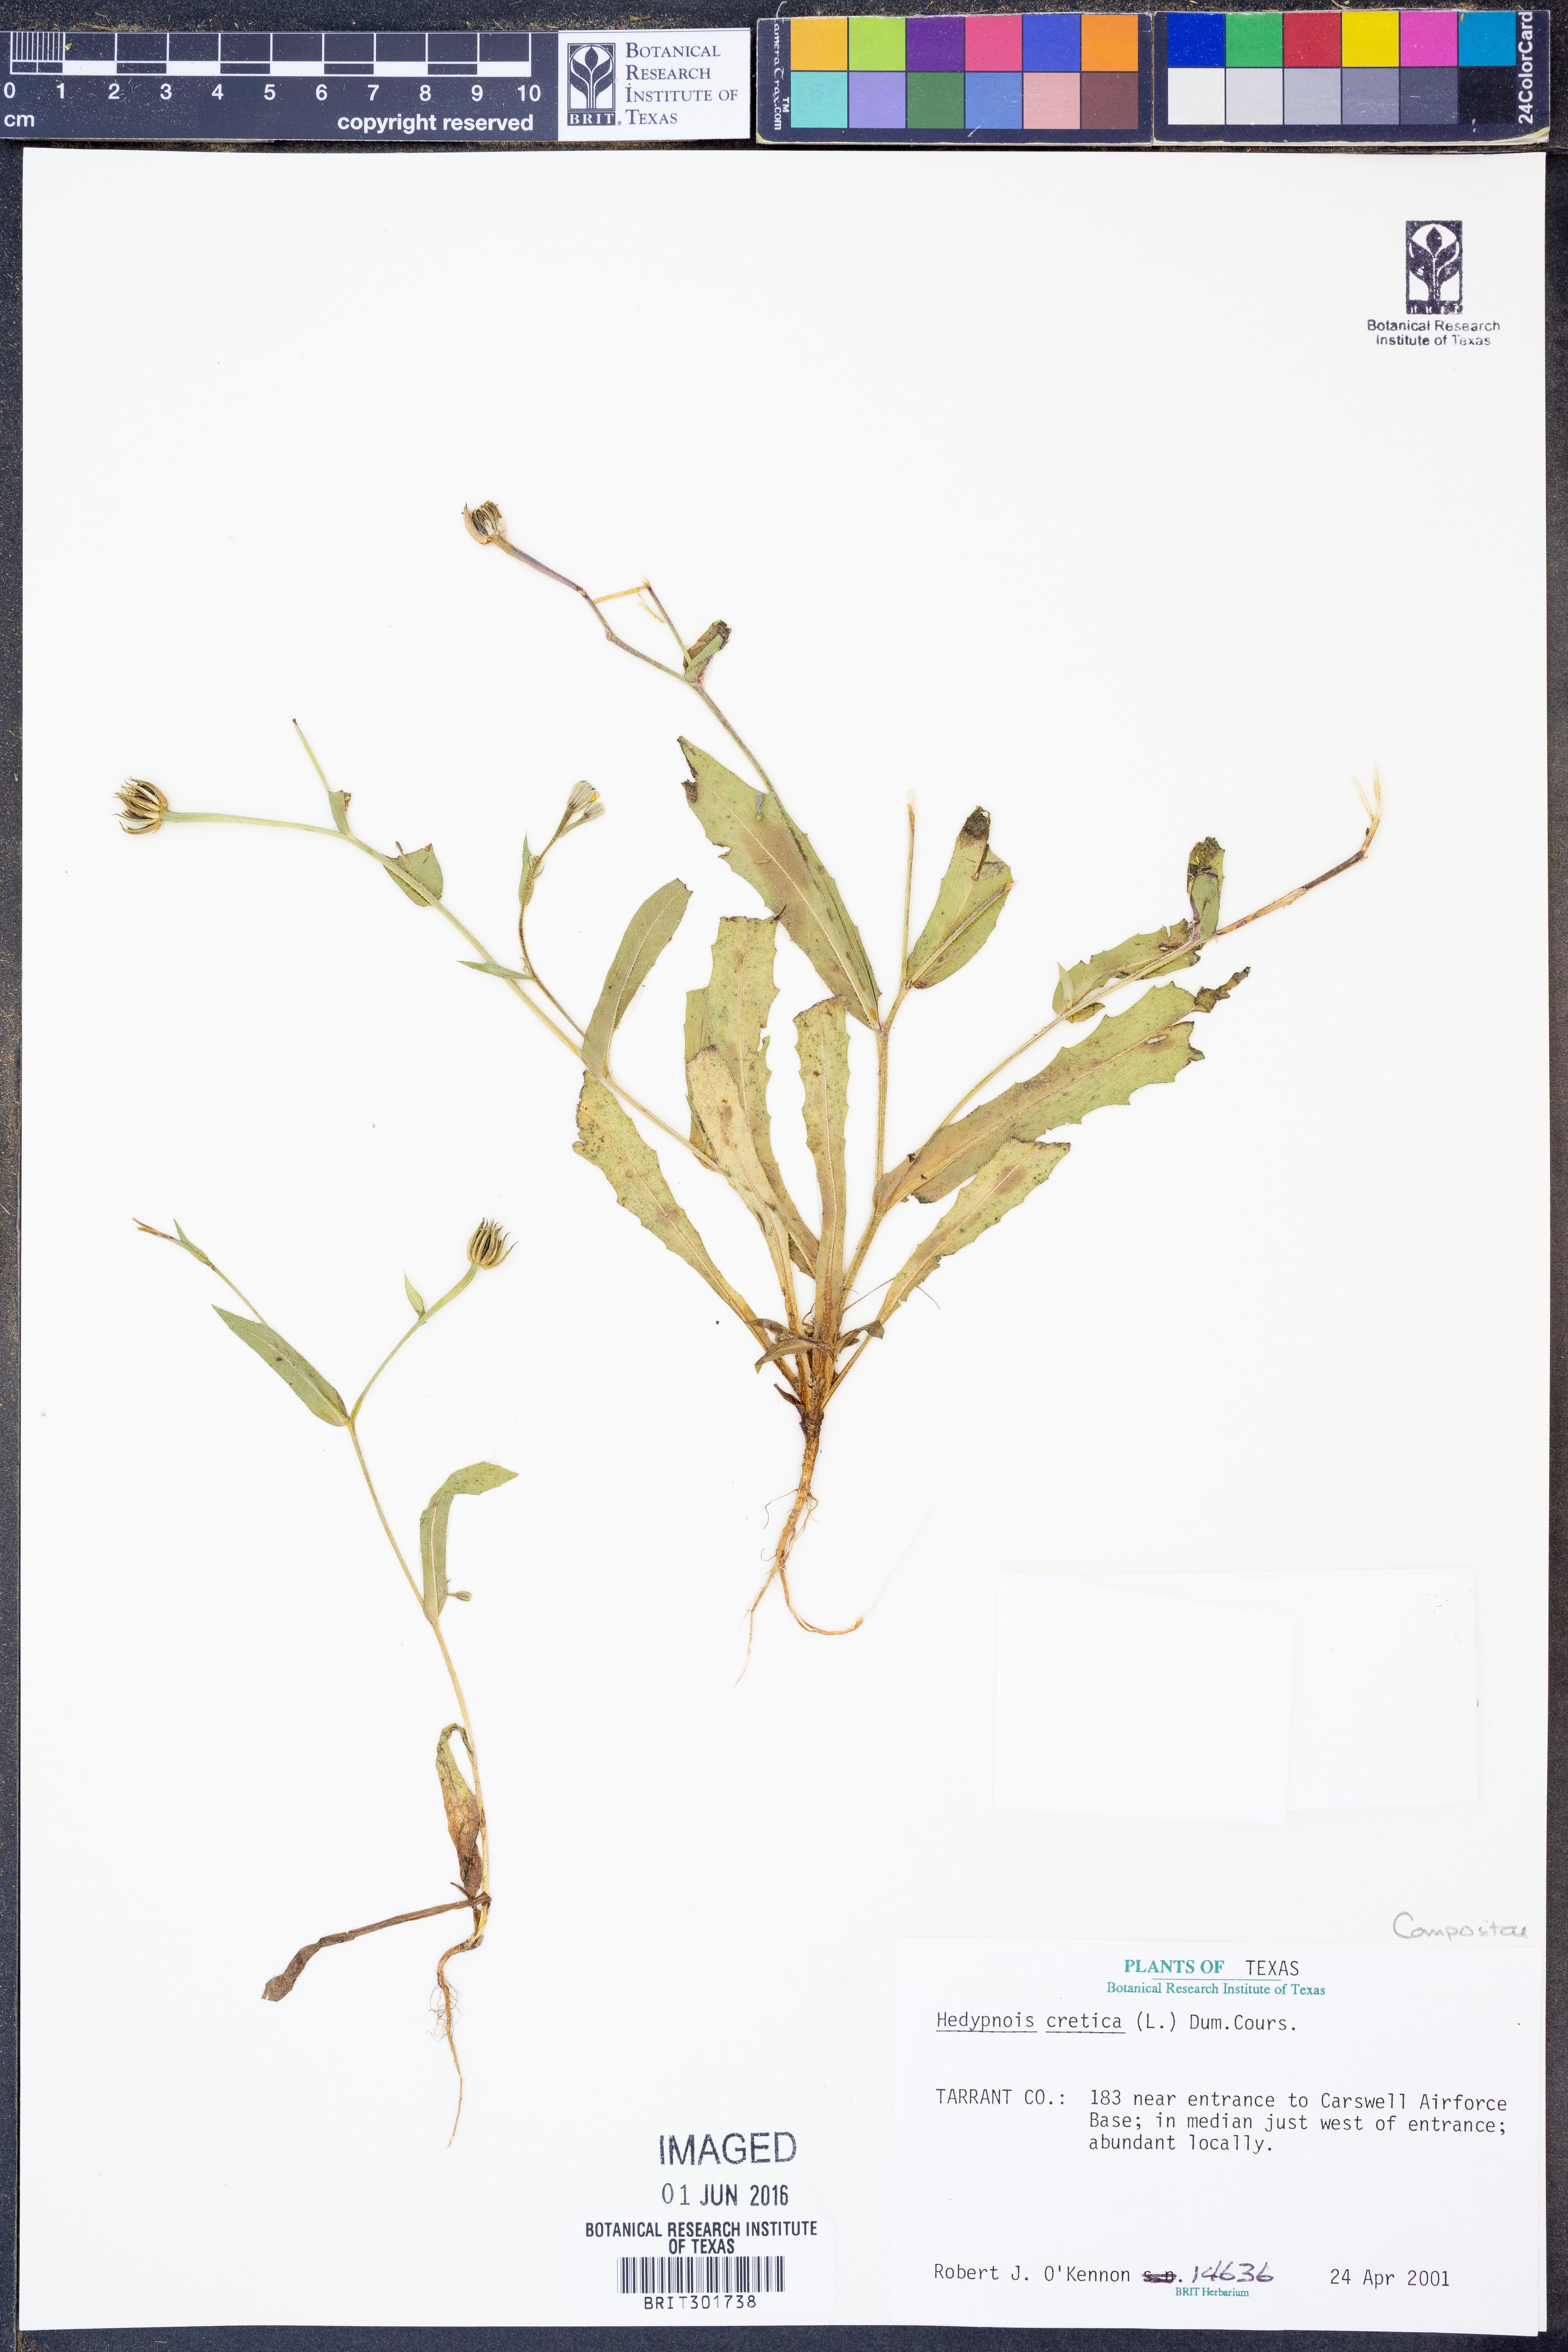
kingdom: Plantae
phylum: Tracheophyta
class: Magnoliopsida
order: Asterales
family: Asteraceae
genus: Hedypnois
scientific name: Hedypnois cretica
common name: Scaly hawkbit
